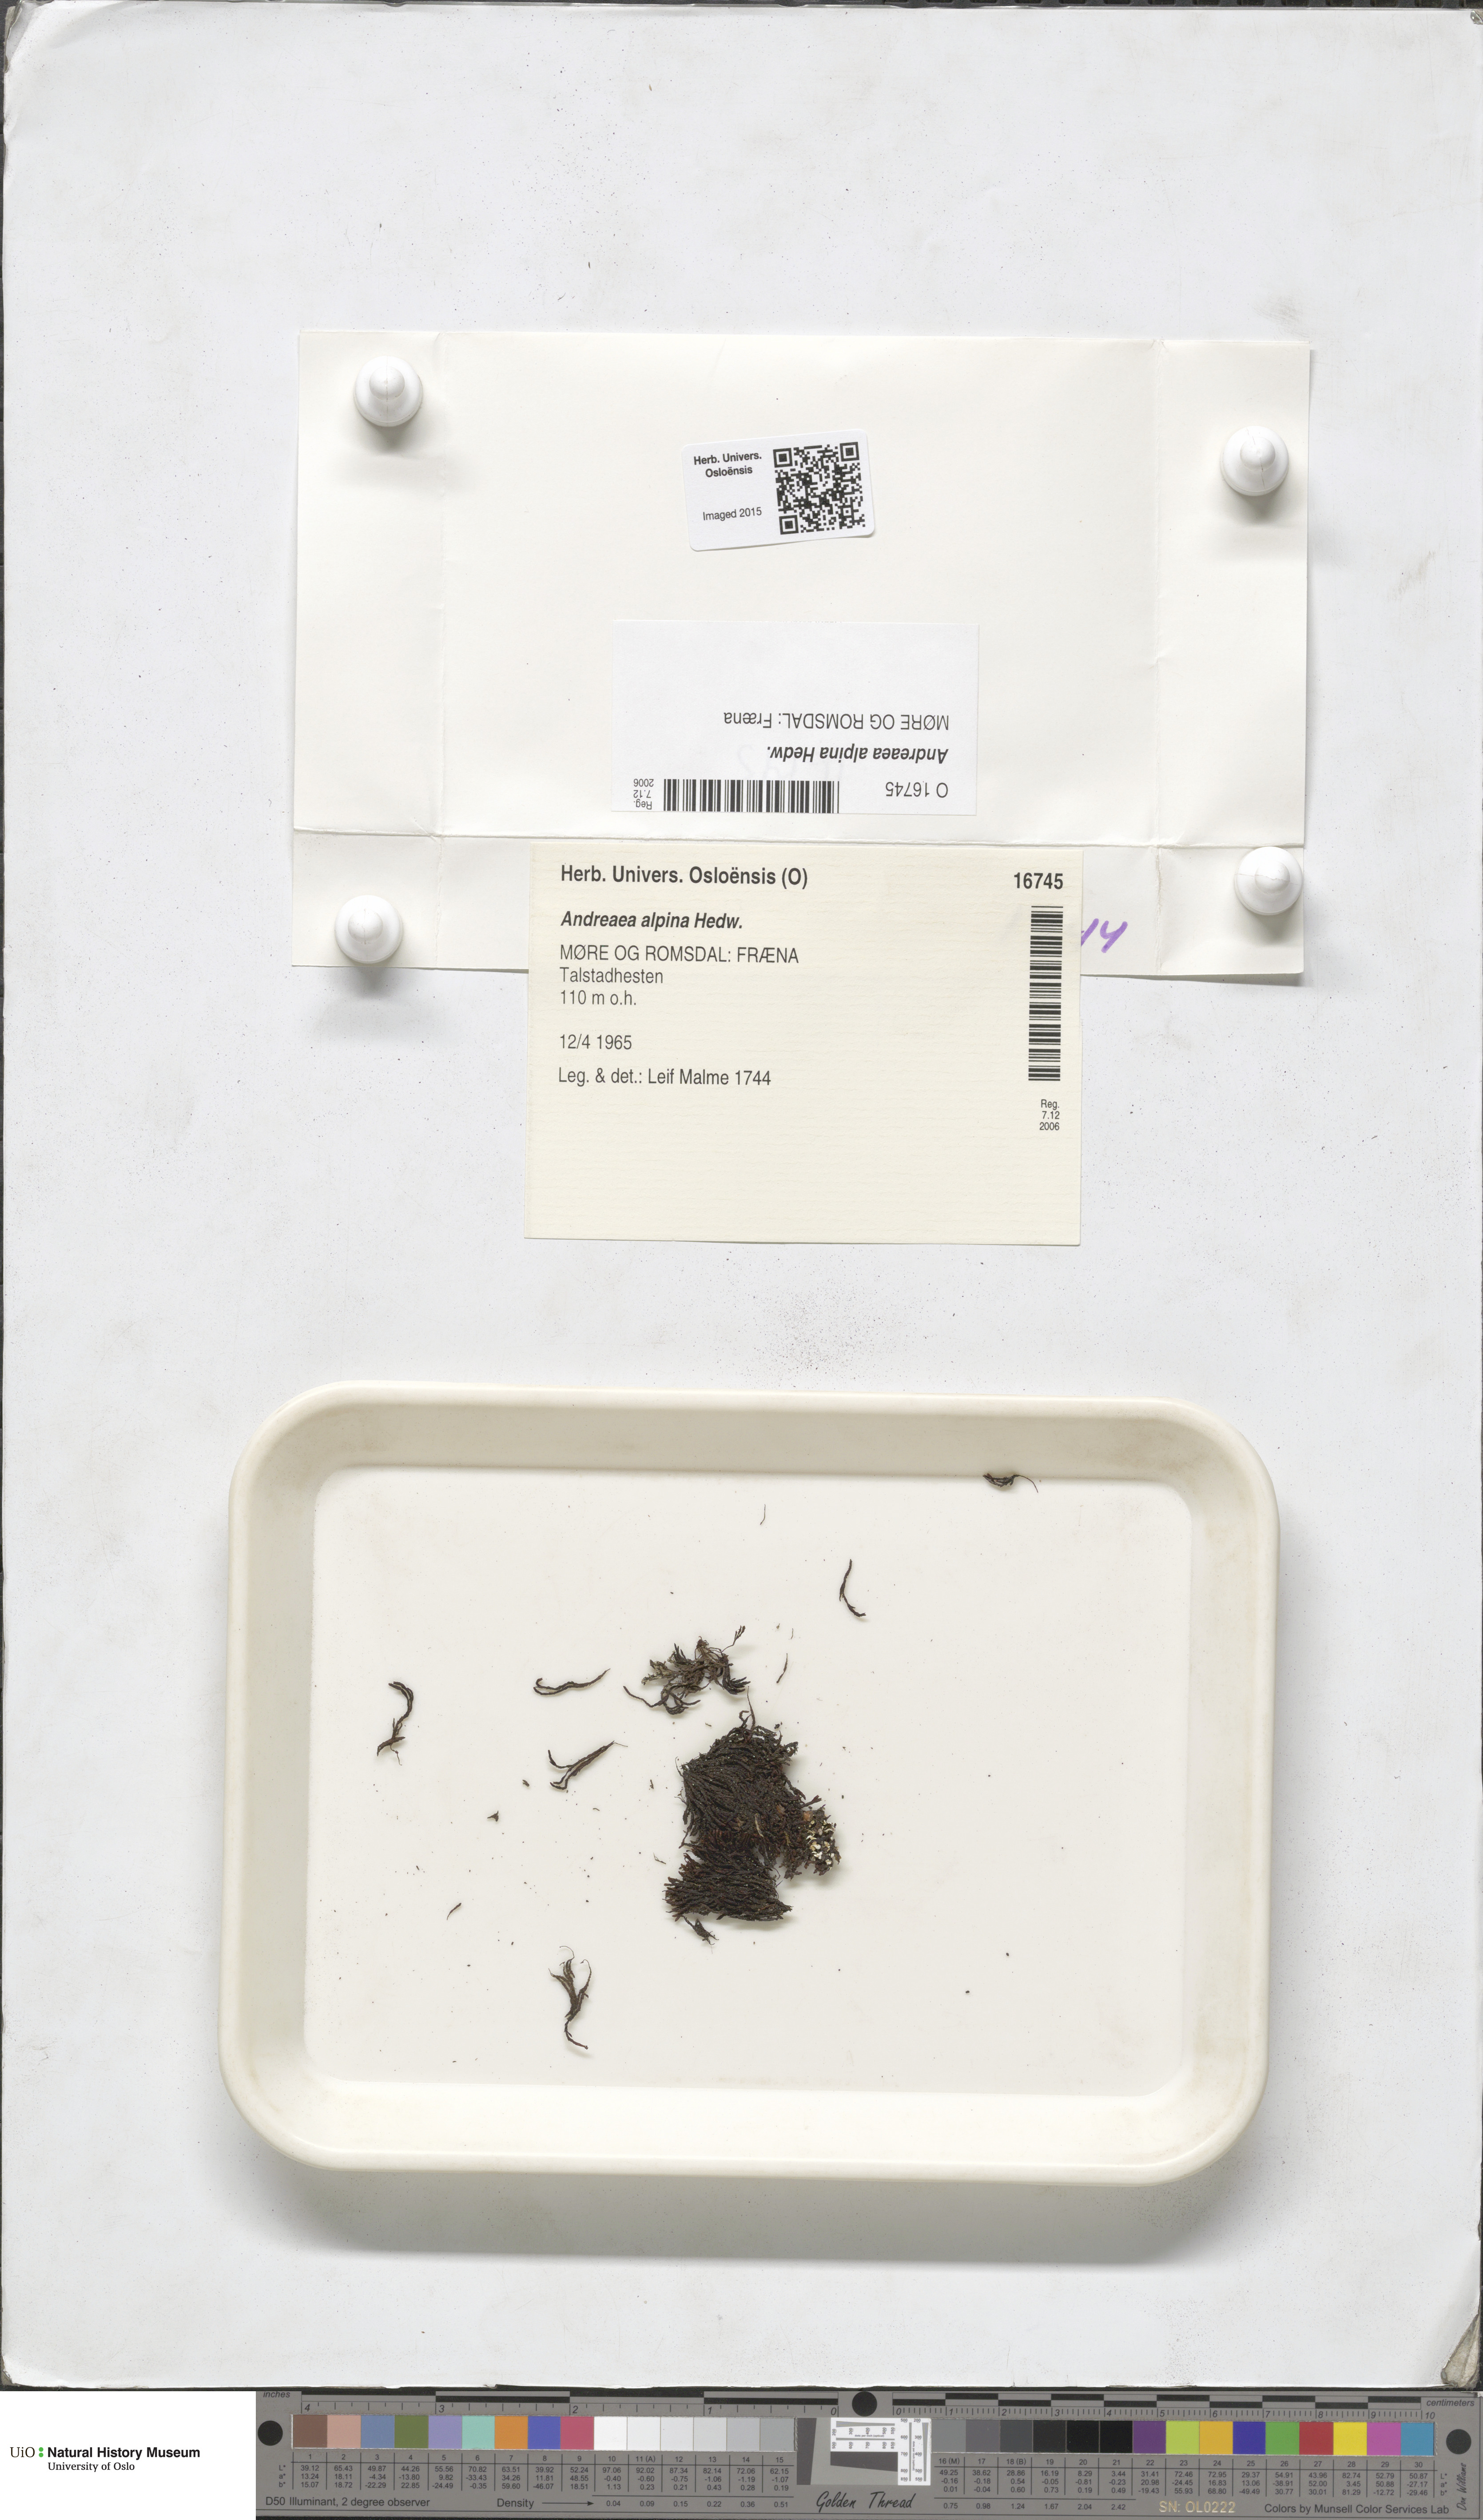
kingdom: Plantae
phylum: Bryophyta
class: Andreaeopsida
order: Andreaeales
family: Andreaeaceae
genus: Andreaea
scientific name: Andreaea hookeri
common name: Alpine rock-moss
